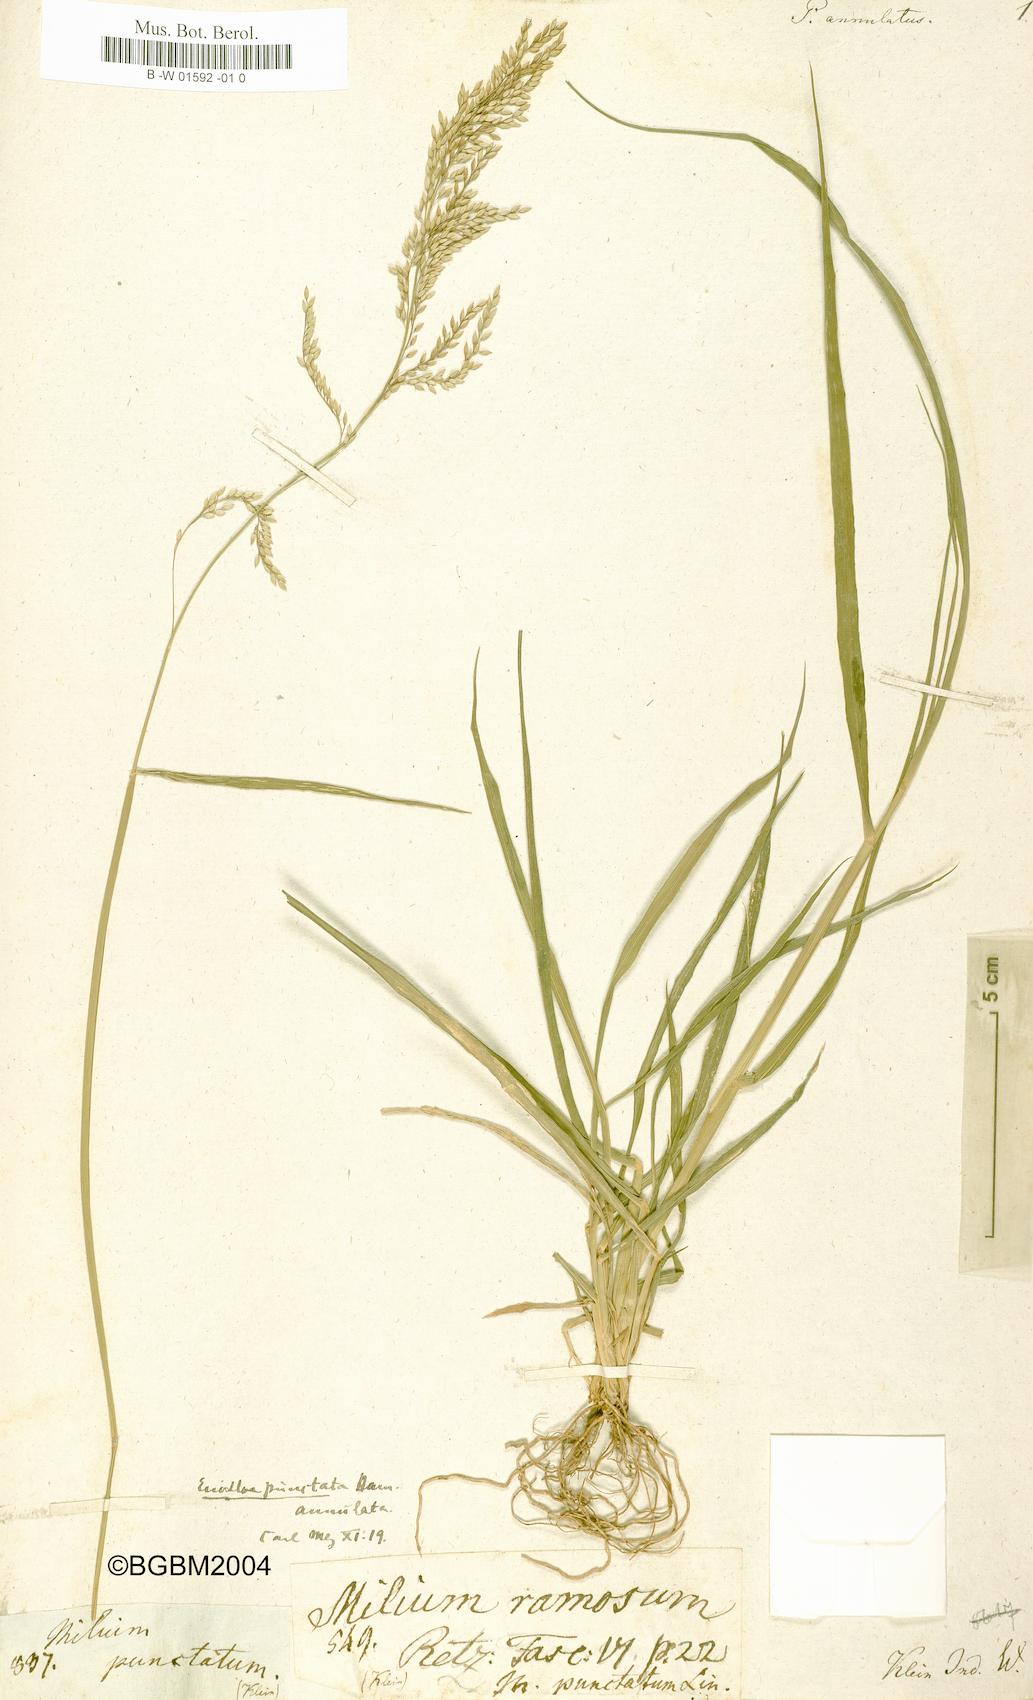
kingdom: Plantae
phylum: Tracheophyta
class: Liliopsida
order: Poales
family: Poaceae
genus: Eriochloa
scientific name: Eriochloa procera
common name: Spring grass
